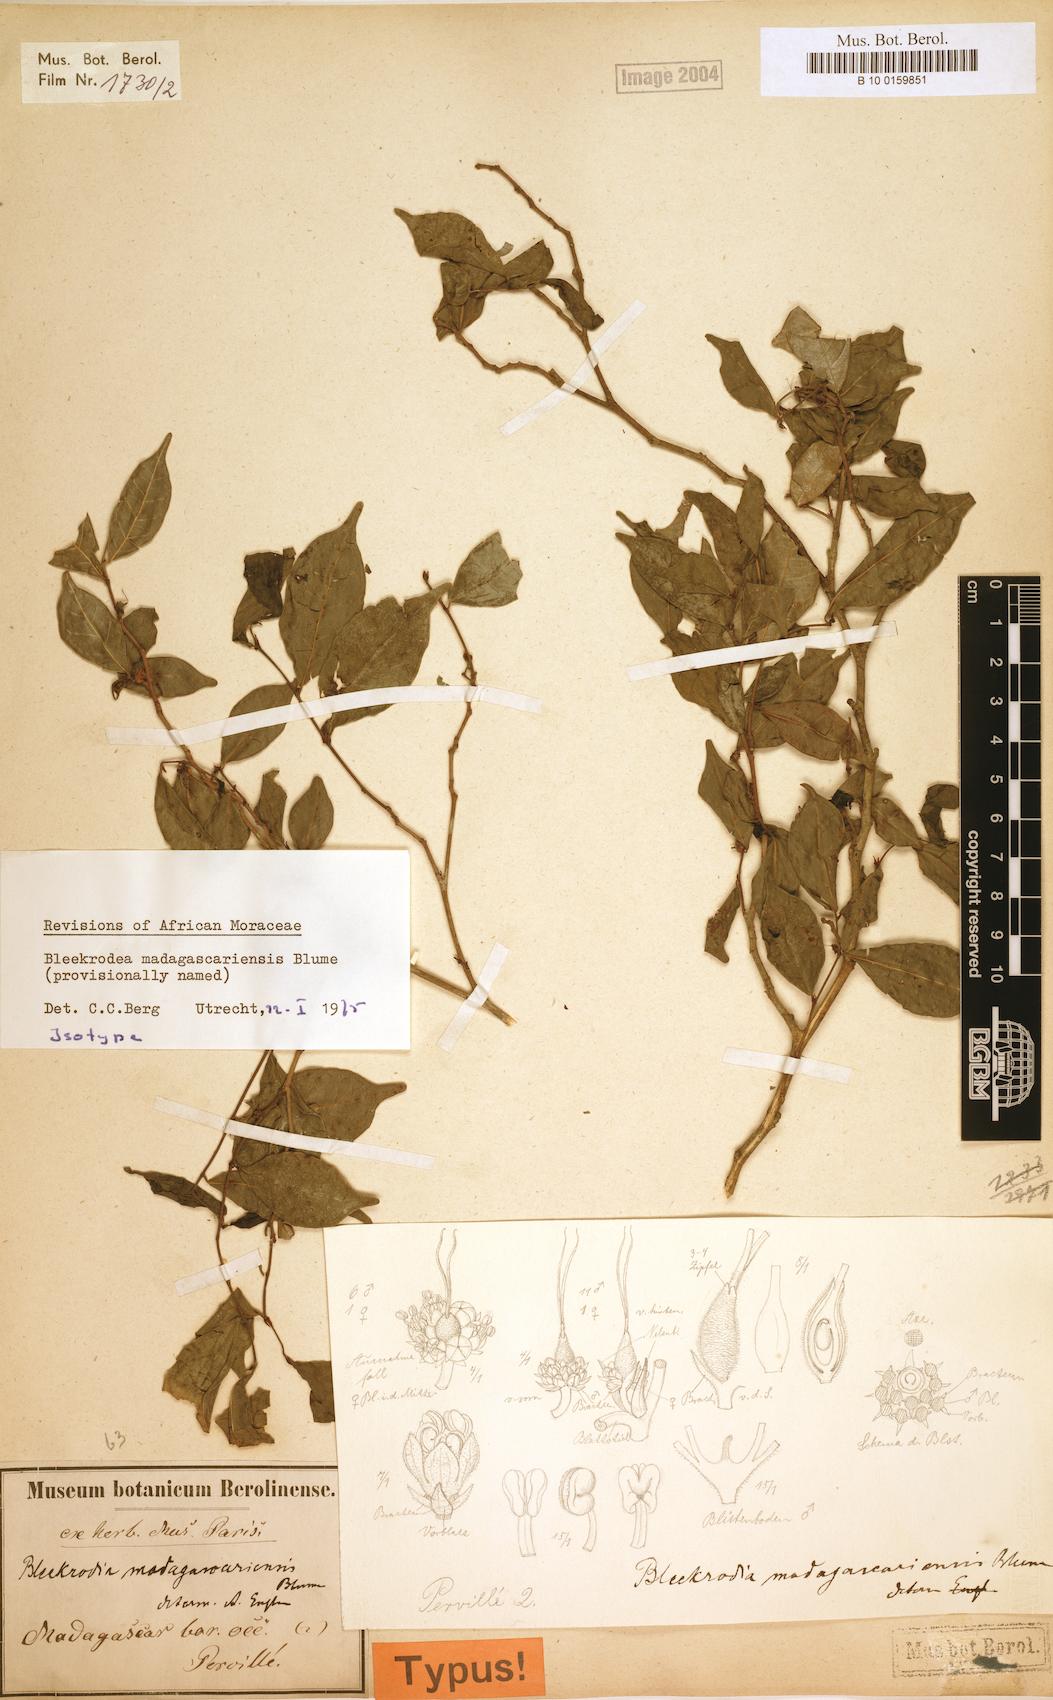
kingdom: Plantae
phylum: Tracheophyta
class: Magnoliopsida
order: Rosales
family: Moraceae
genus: Bleekrodea
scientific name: Bleekrodea madagascariensis
